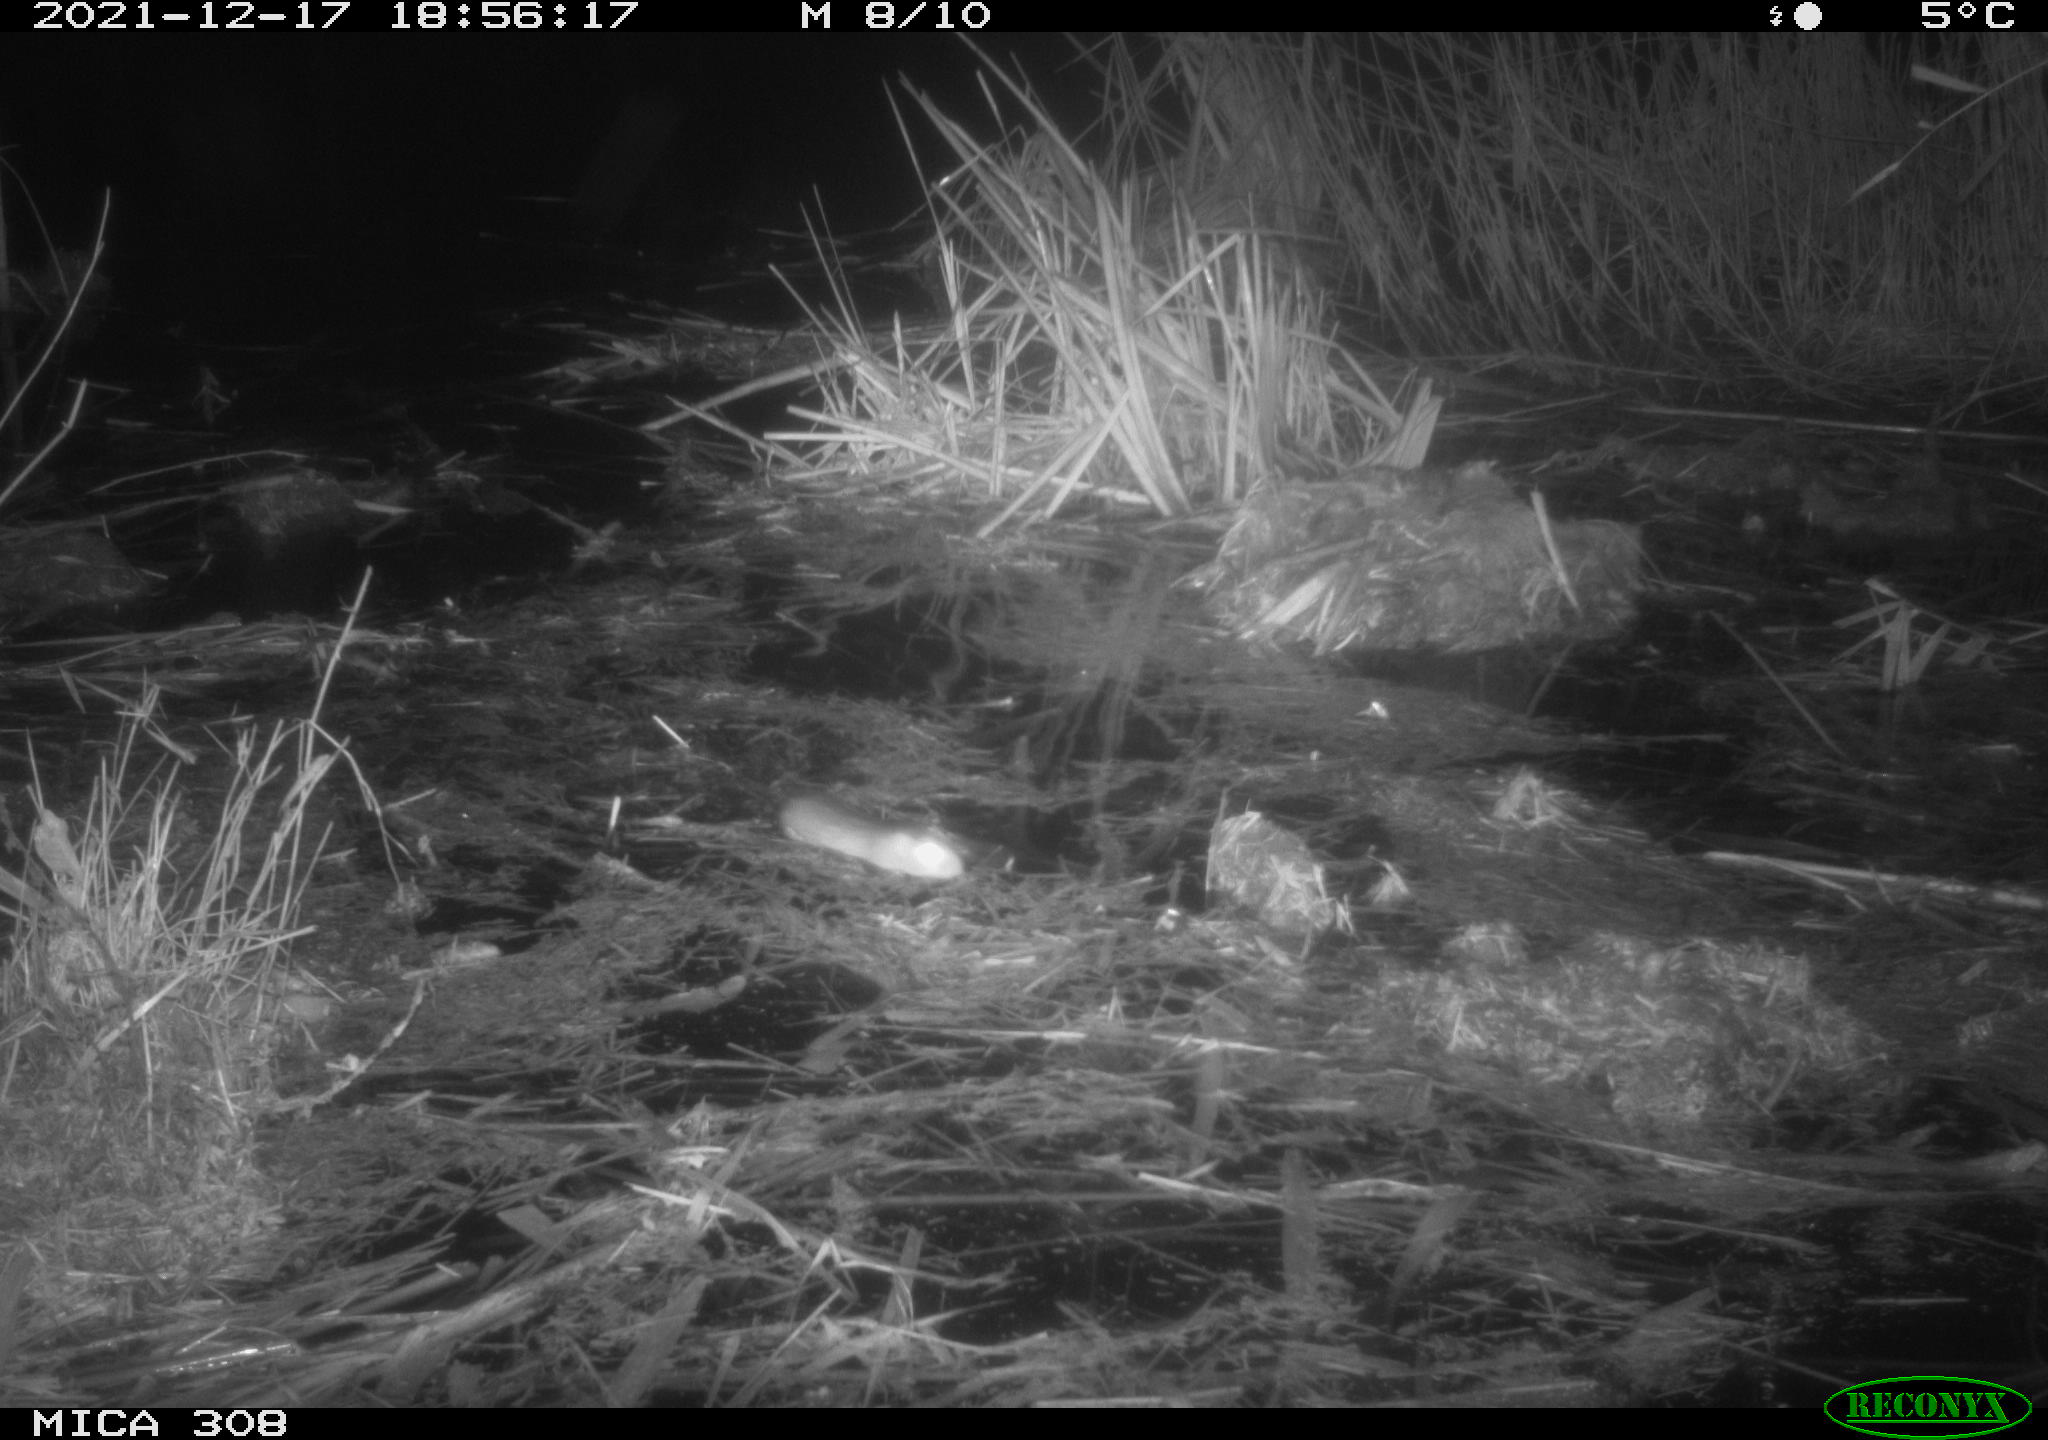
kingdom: Animalia
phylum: Chordata
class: Mammalia
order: Rodentia
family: Muridae
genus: Rattus
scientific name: Rattus norvegicus
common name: Brown rat
